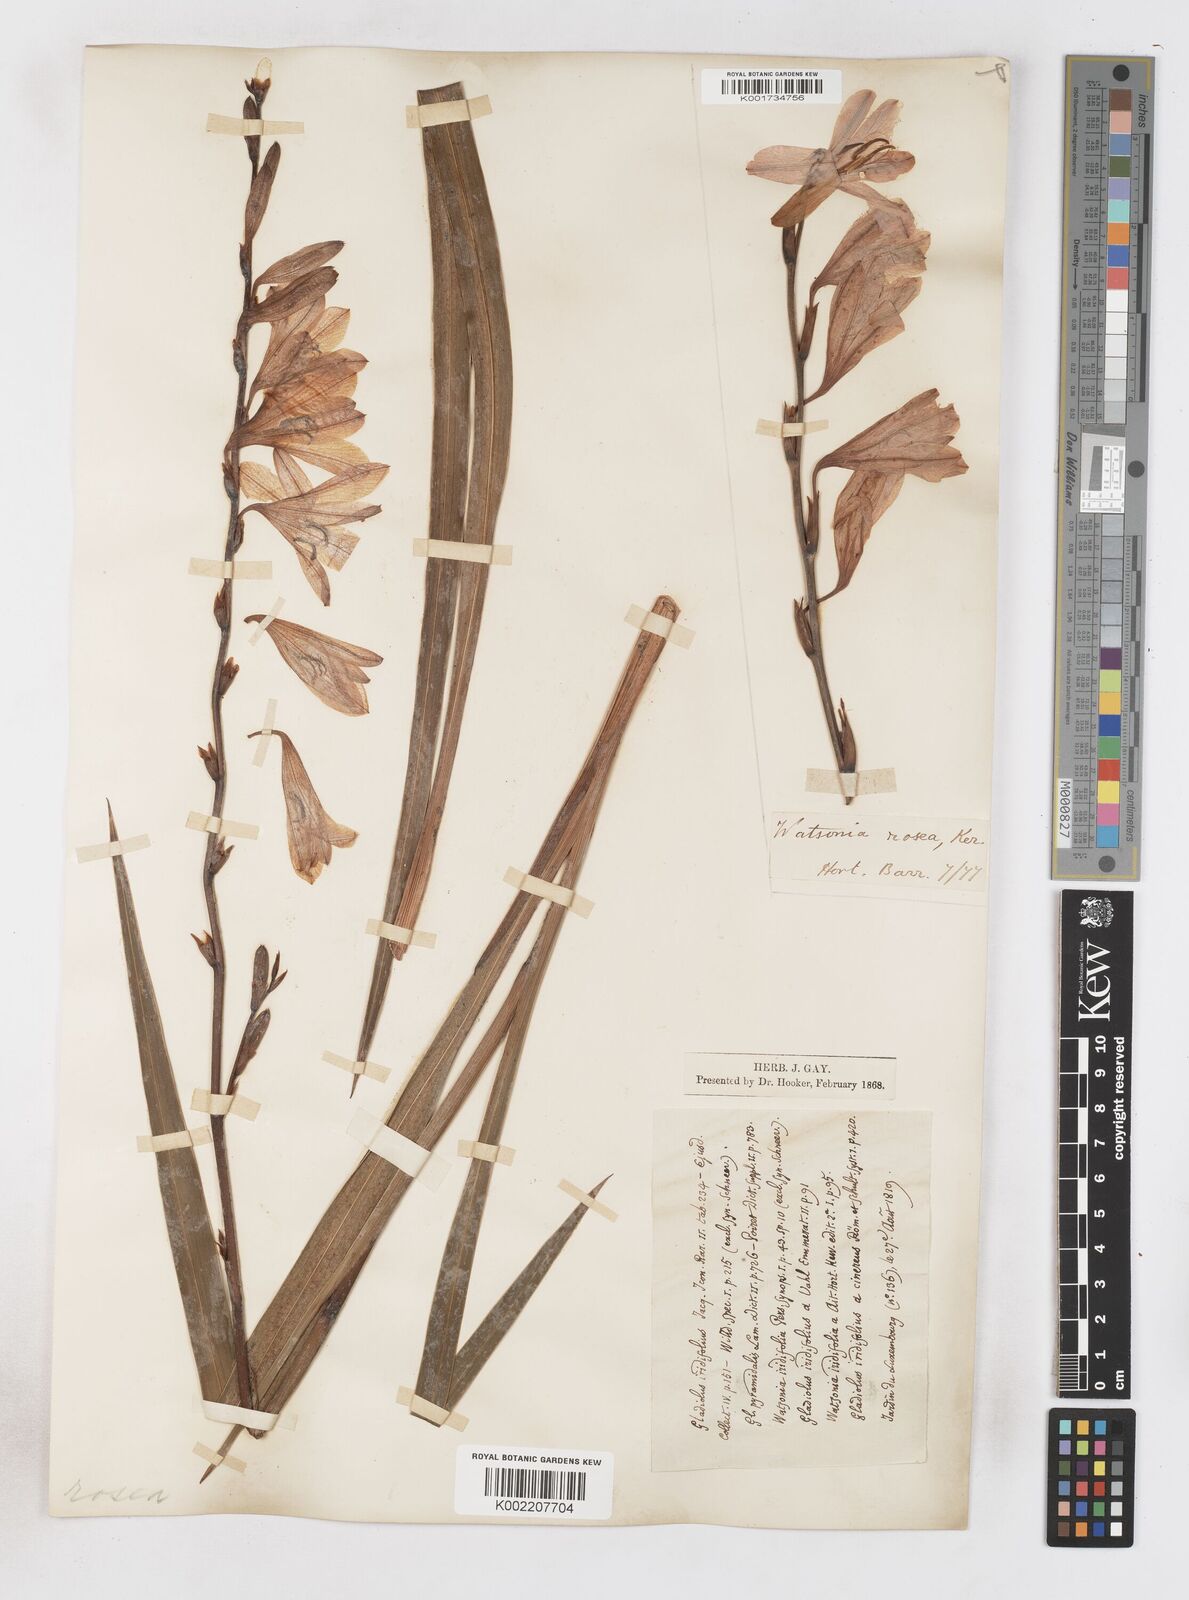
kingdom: Plantae
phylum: Tracheophyta
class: Liliopsida
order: Asparagales
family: Iridaceae
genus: Watsonia
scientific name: Watsonia borbonica
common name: Bugle-lily
